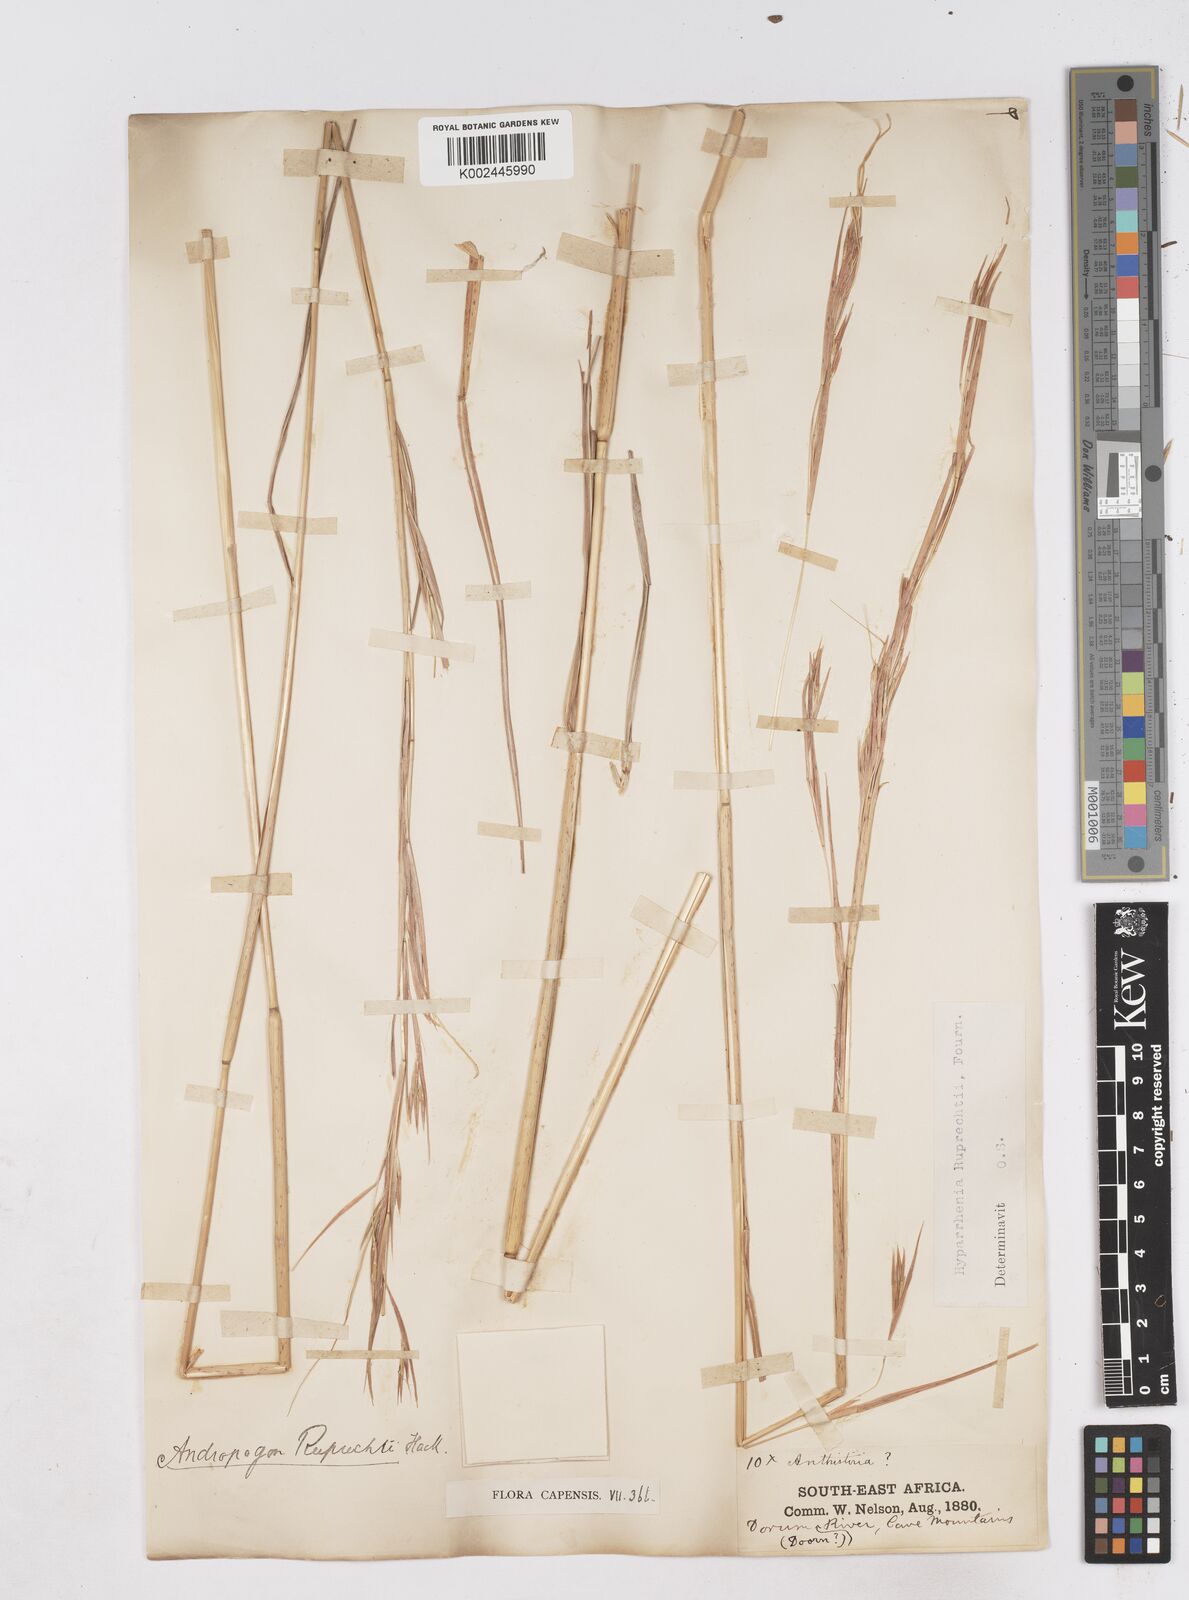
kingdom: Plantae
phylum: Tracheophyta
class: Liliopsida
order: Poales
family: Poaceae
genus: Hyperthelia
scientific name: Hyperthelia dissoluta
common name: Yellow thatching grass
